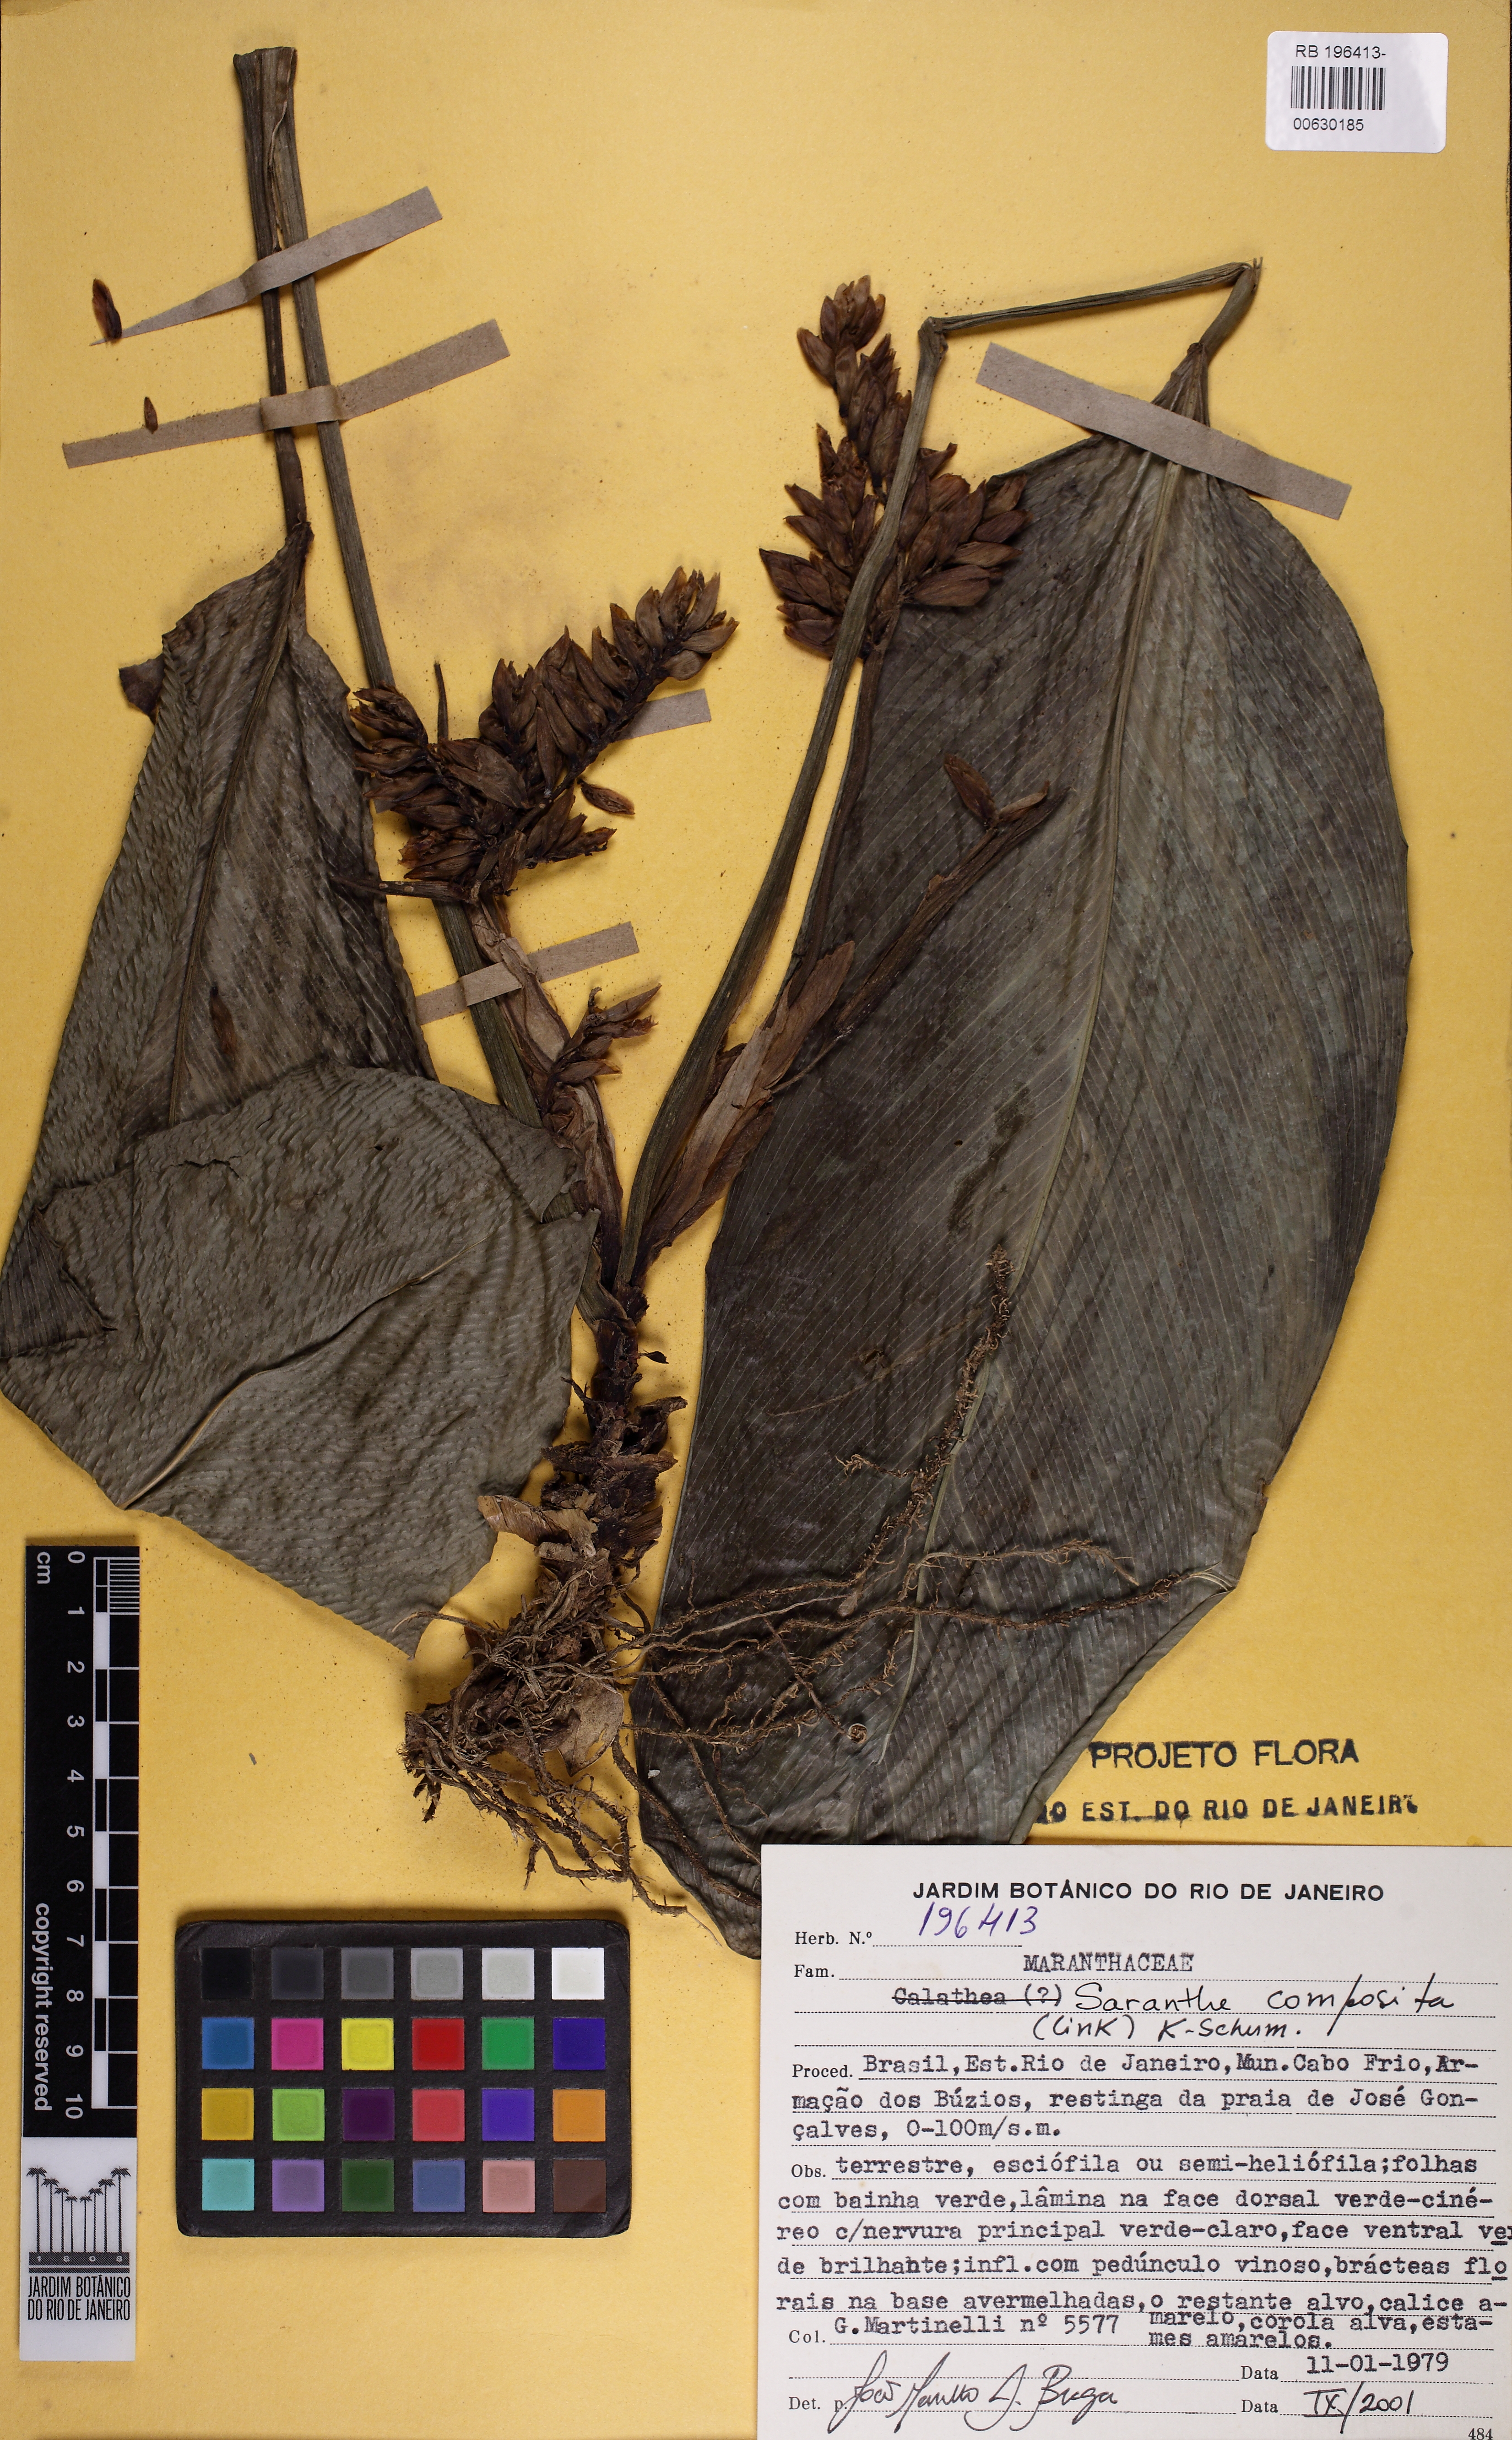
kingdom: Plantae
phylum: Tracheophyta
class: Liliopsida
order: Zingiberales
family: Marantaceae
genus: Saranthe
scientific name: Saranthe composita
